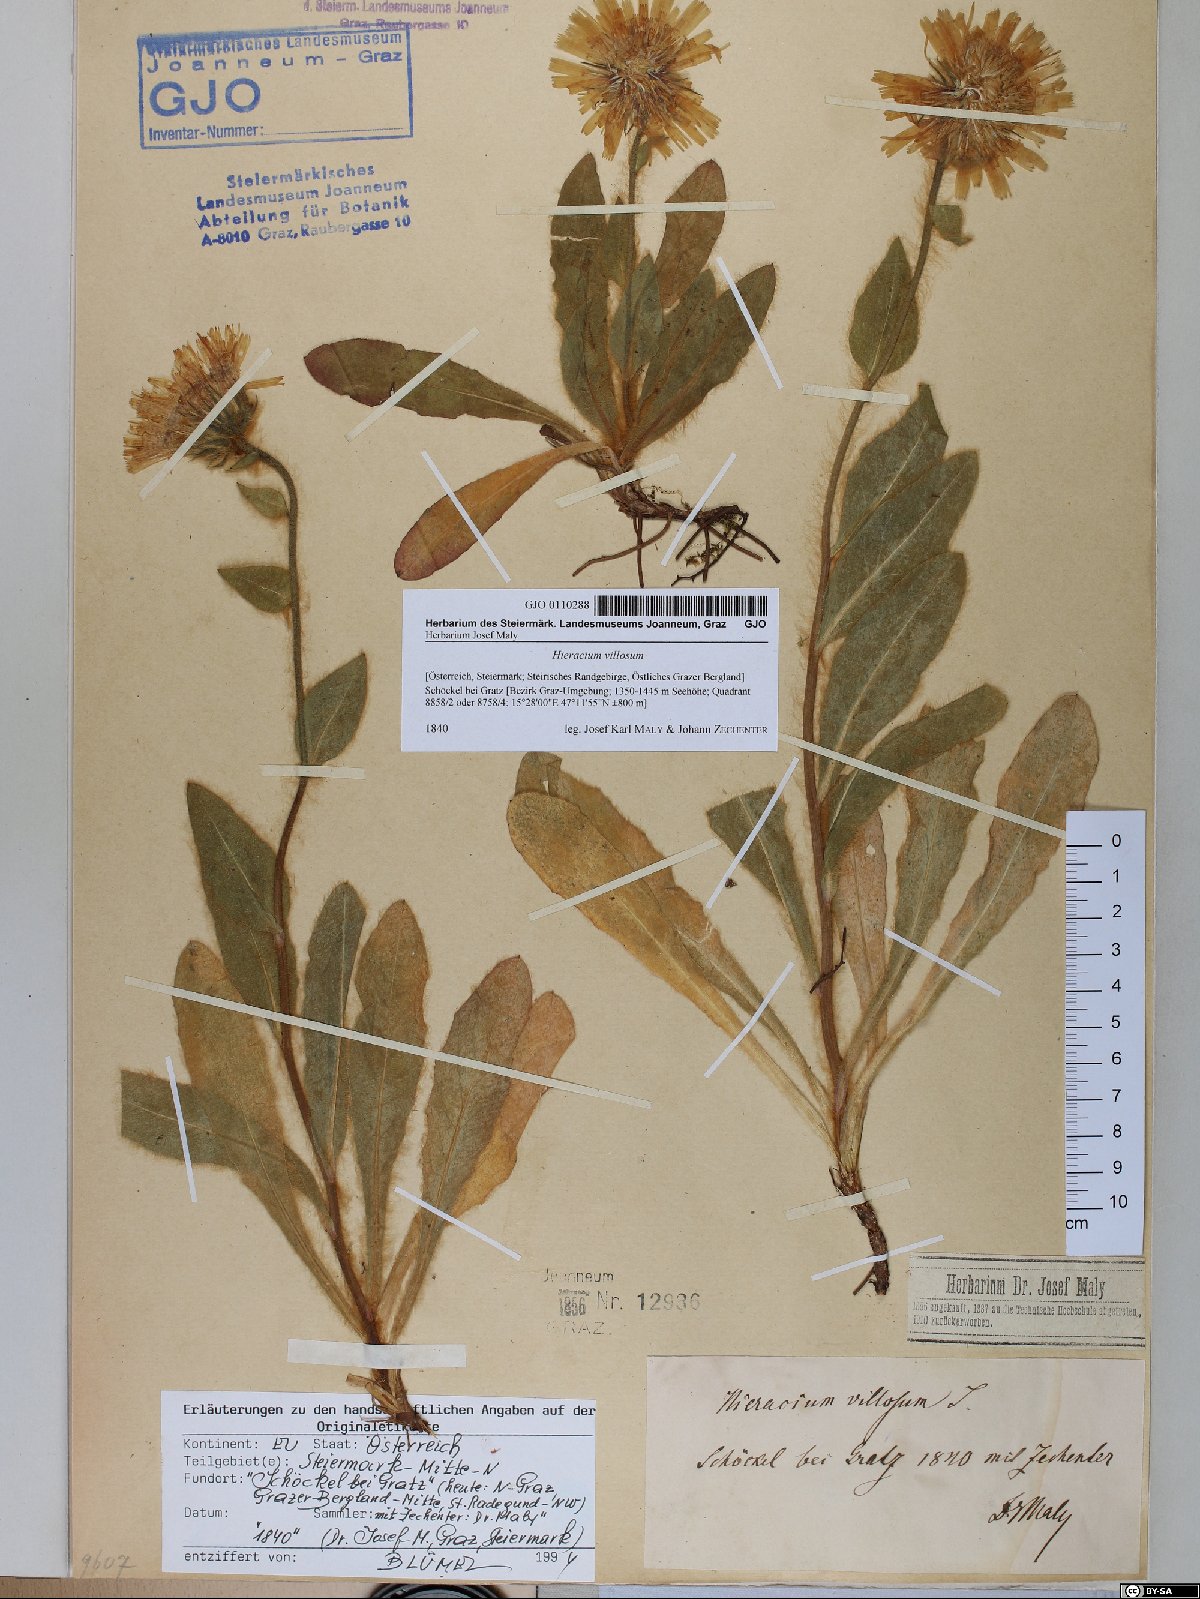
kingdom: Plantae
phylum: Tracheophyta
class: Magnoliopsida
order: Asterales
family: Asteraceae
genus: Hieracium
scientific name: Hieracium villosum
